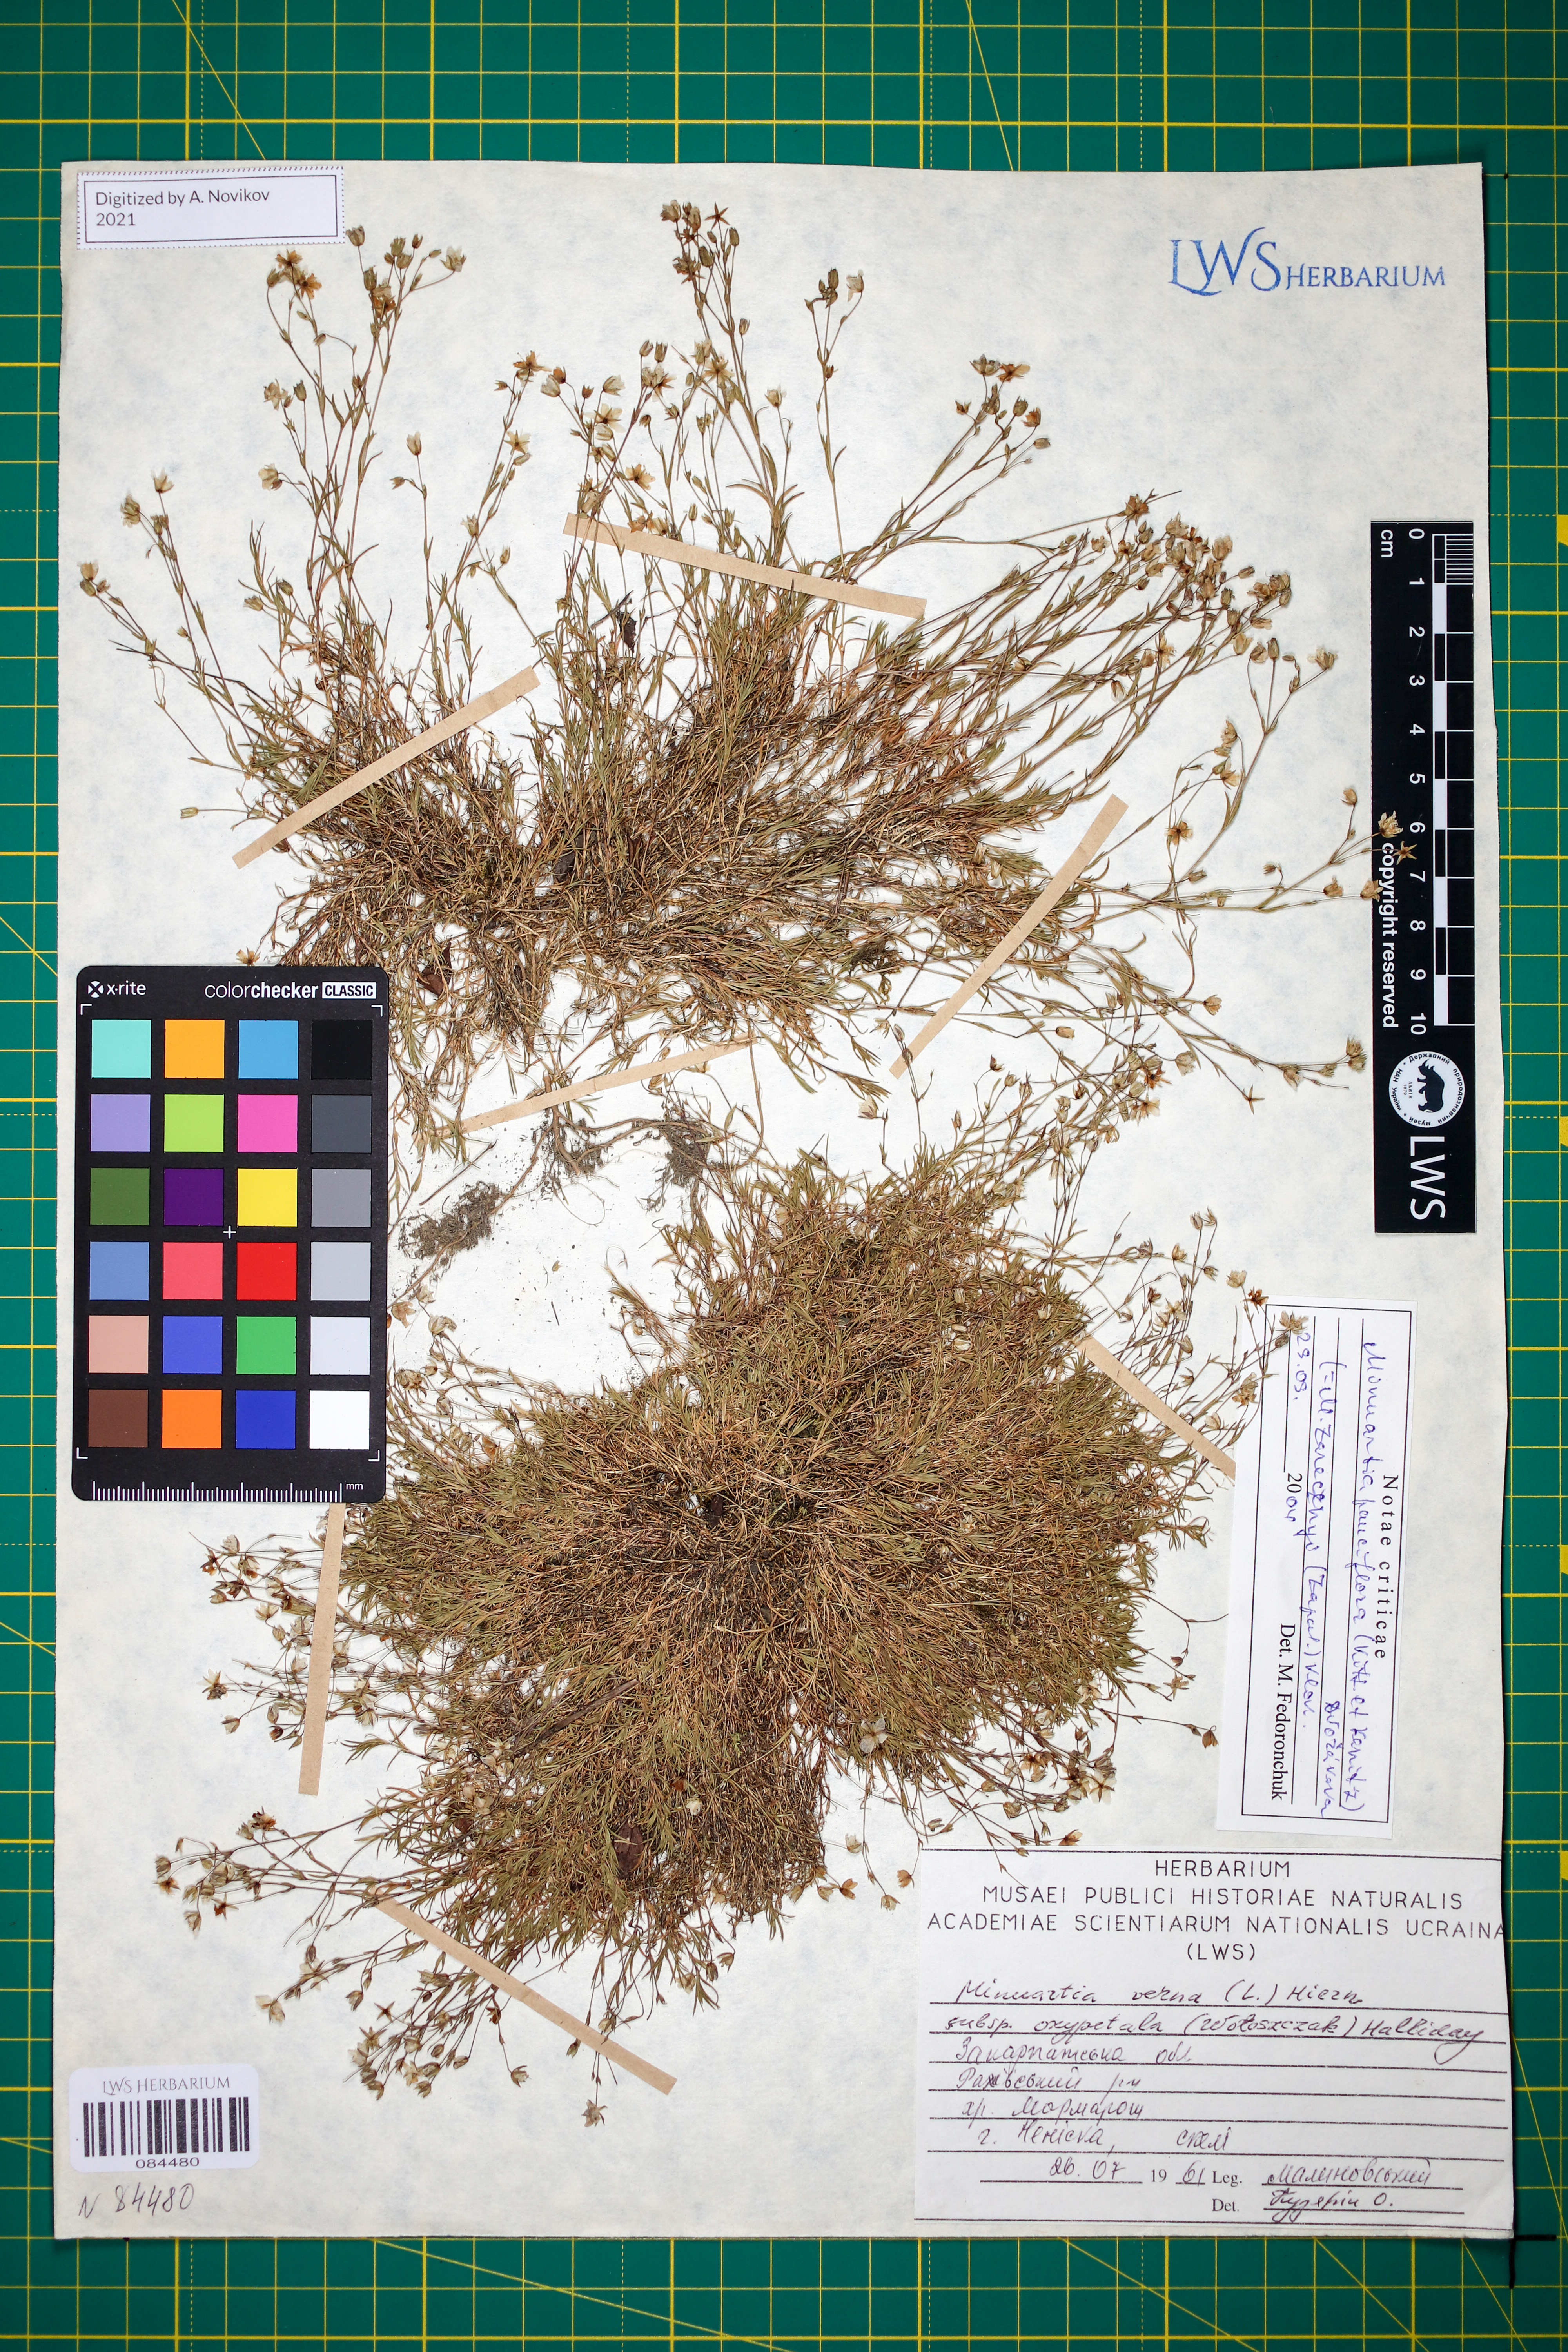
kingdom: Plantae
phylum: Tracheophyta
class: Magnoliopsida
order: Caryophyllales
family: Caryophyllaceae
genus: Minuartia
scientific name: Minuartia pauciflora
